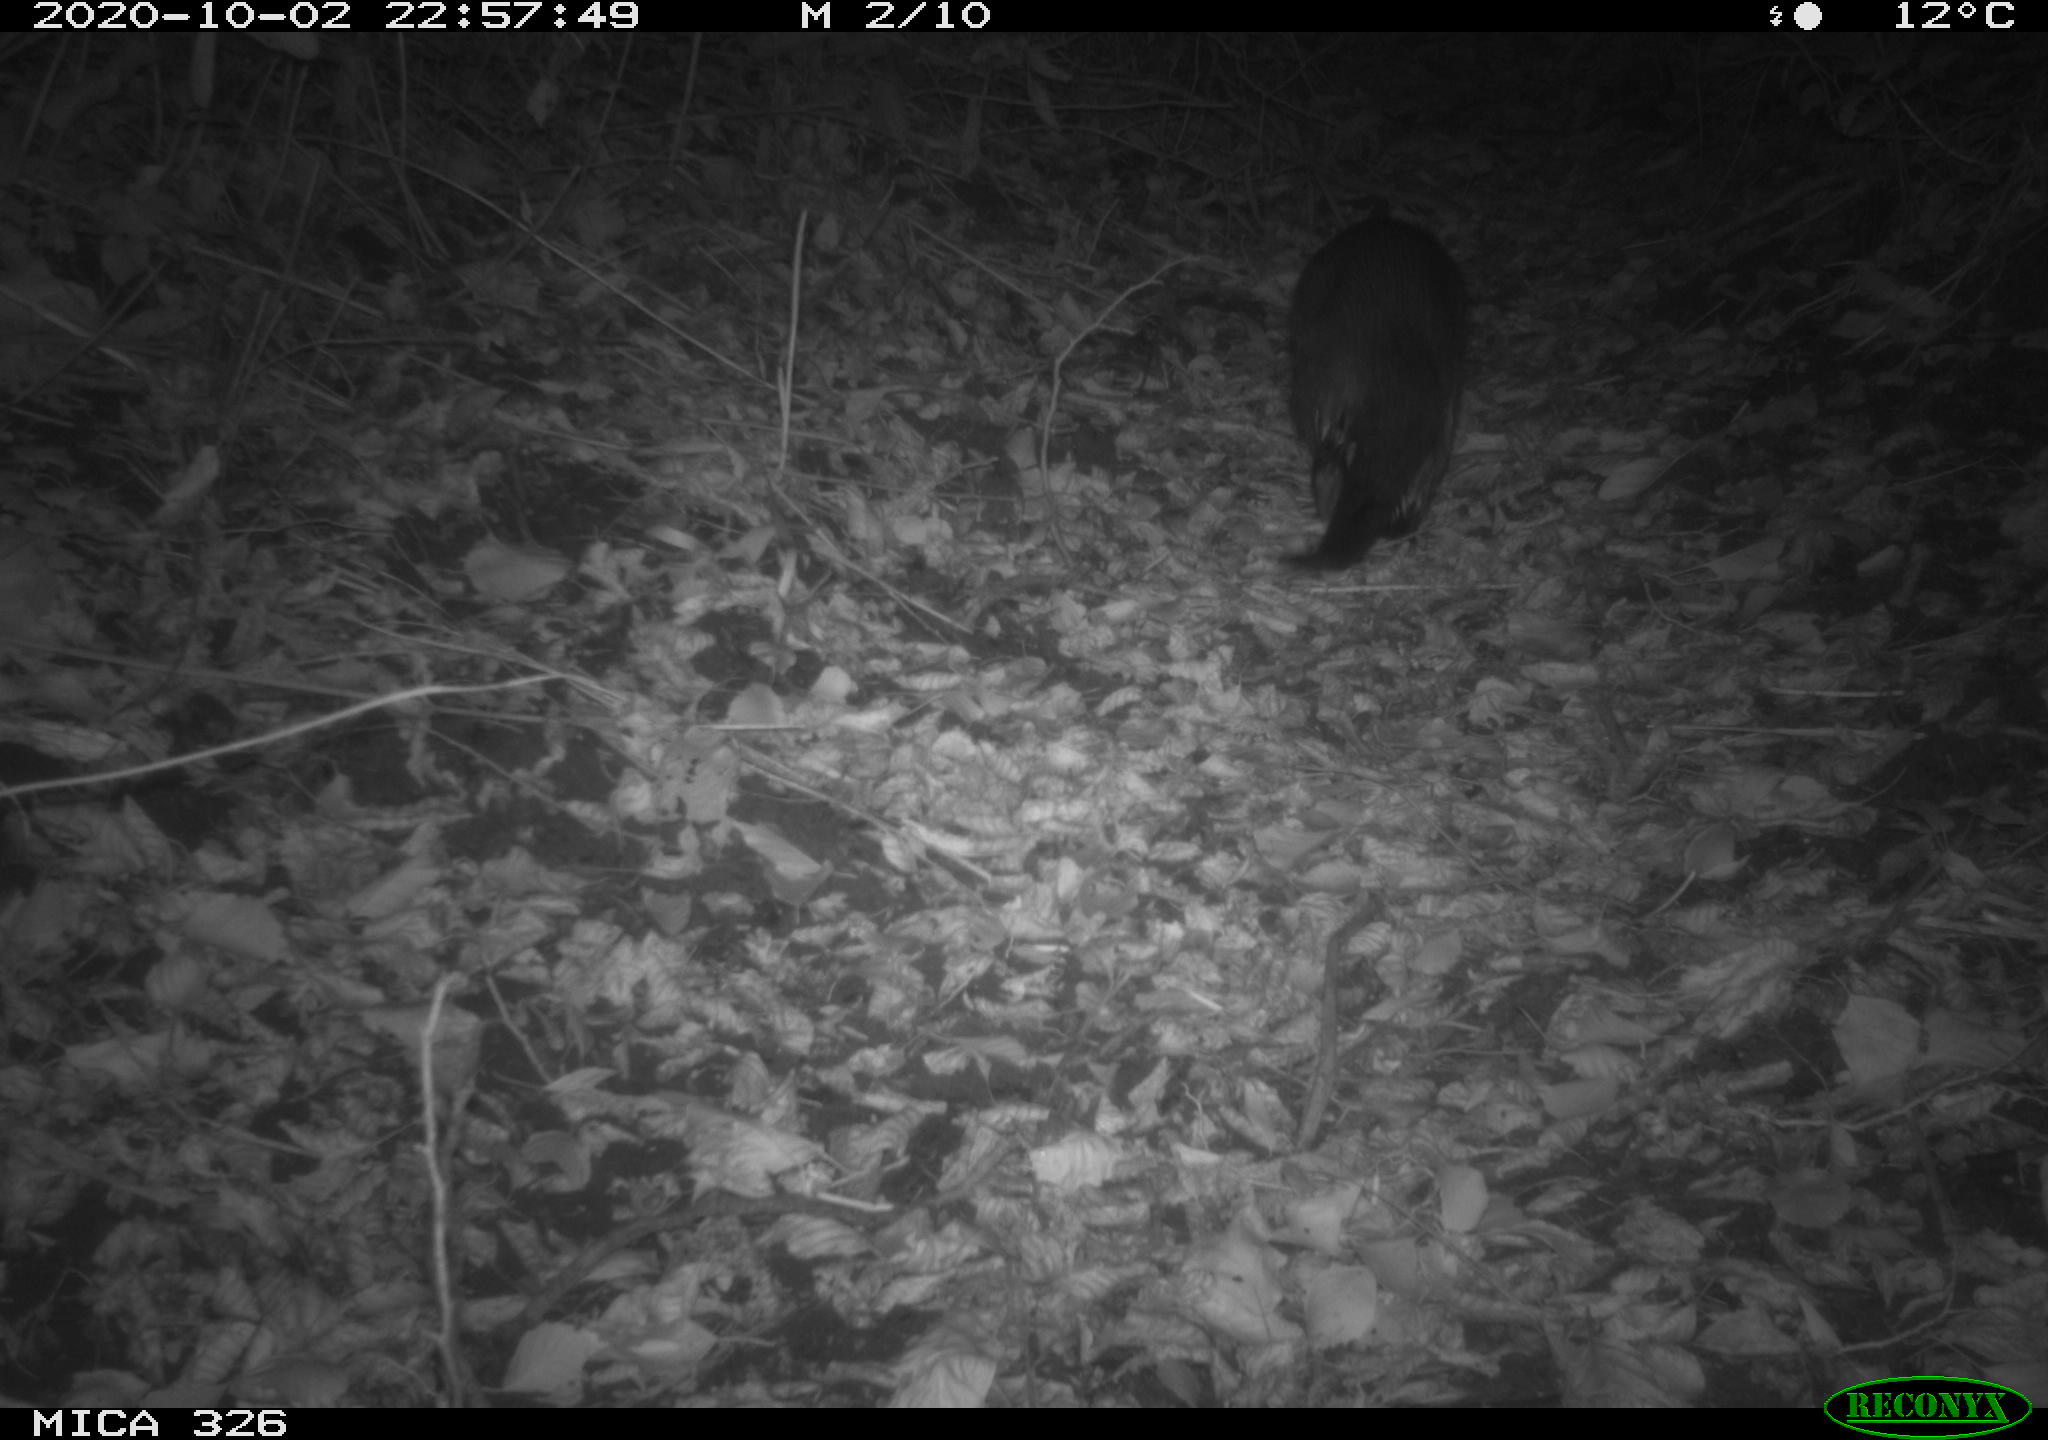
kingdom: Animalia
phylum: Chordata
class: Mammalia
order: Carnivora
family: Mustelidae
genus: Lutra
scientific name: Lutra lutra
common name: European otter
